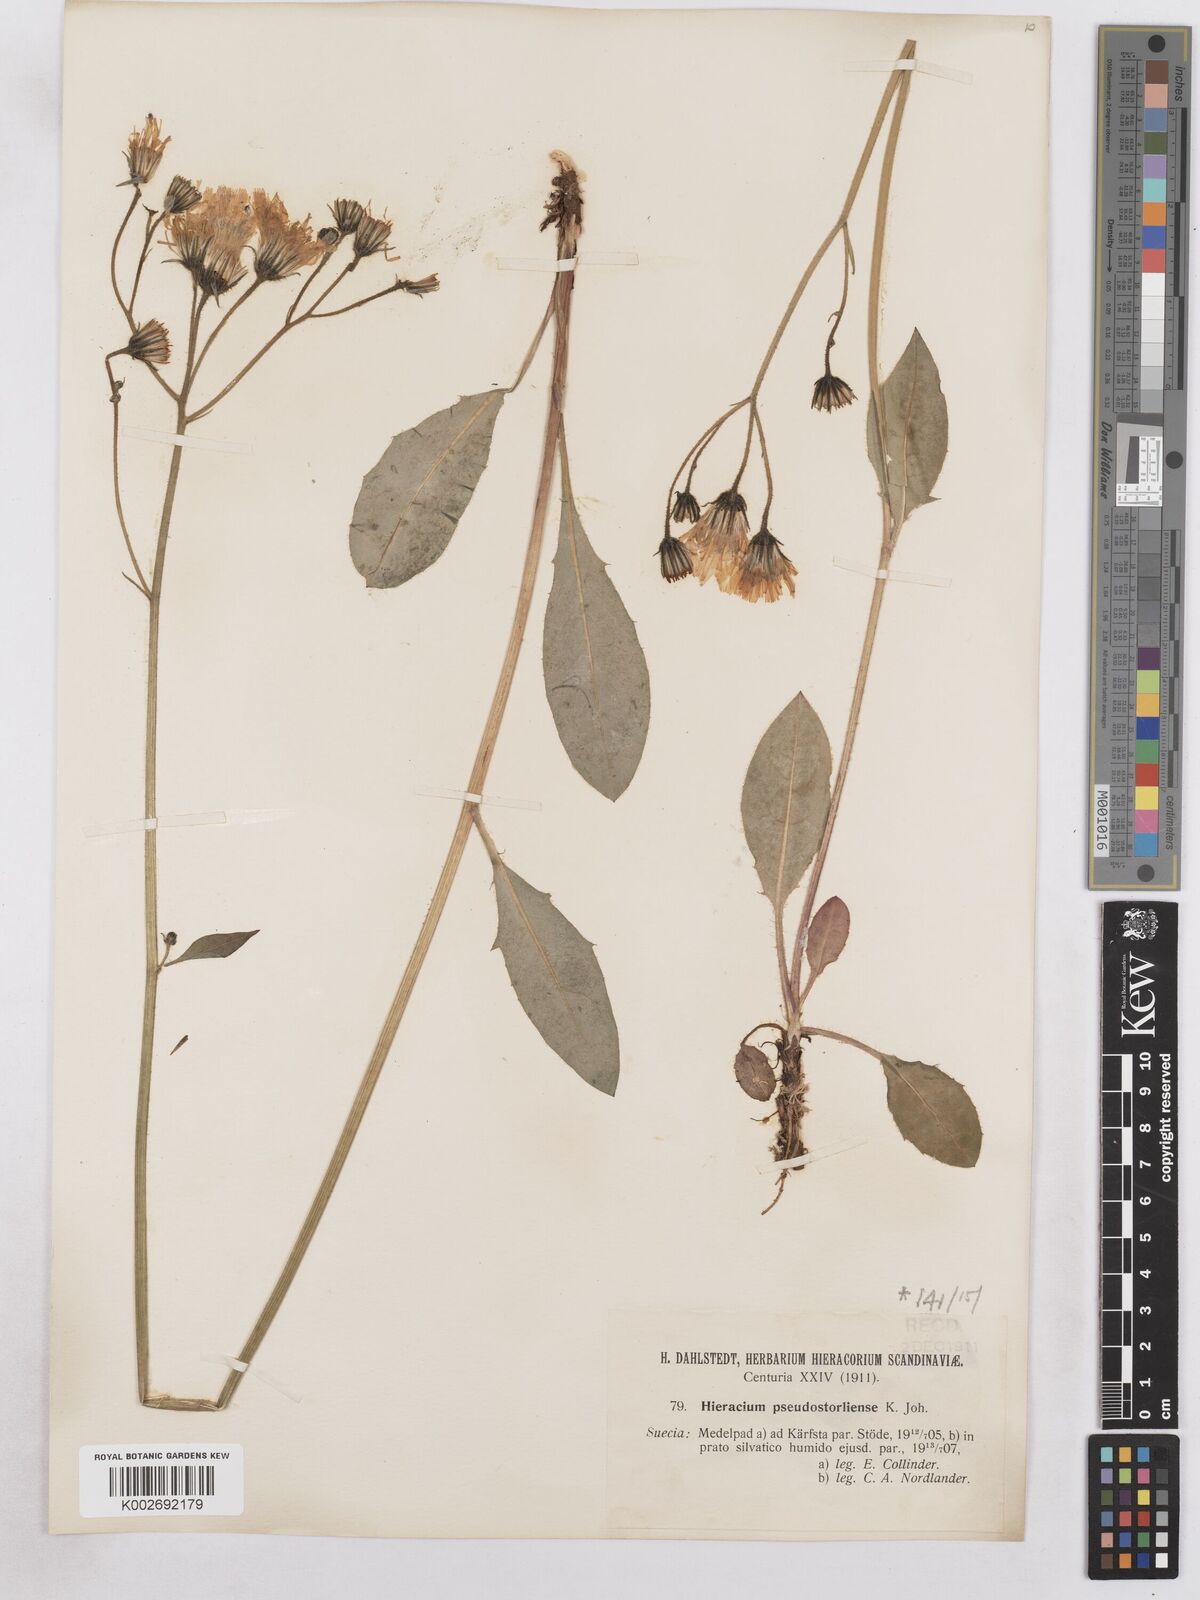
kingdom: Plantae
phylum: Tracheophyta
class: Magnoliopsida
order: Asterales
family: Asteraceae
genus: Hieracium
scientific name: Hieracium diaphanoides
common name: Fine-bracted hawkweed
